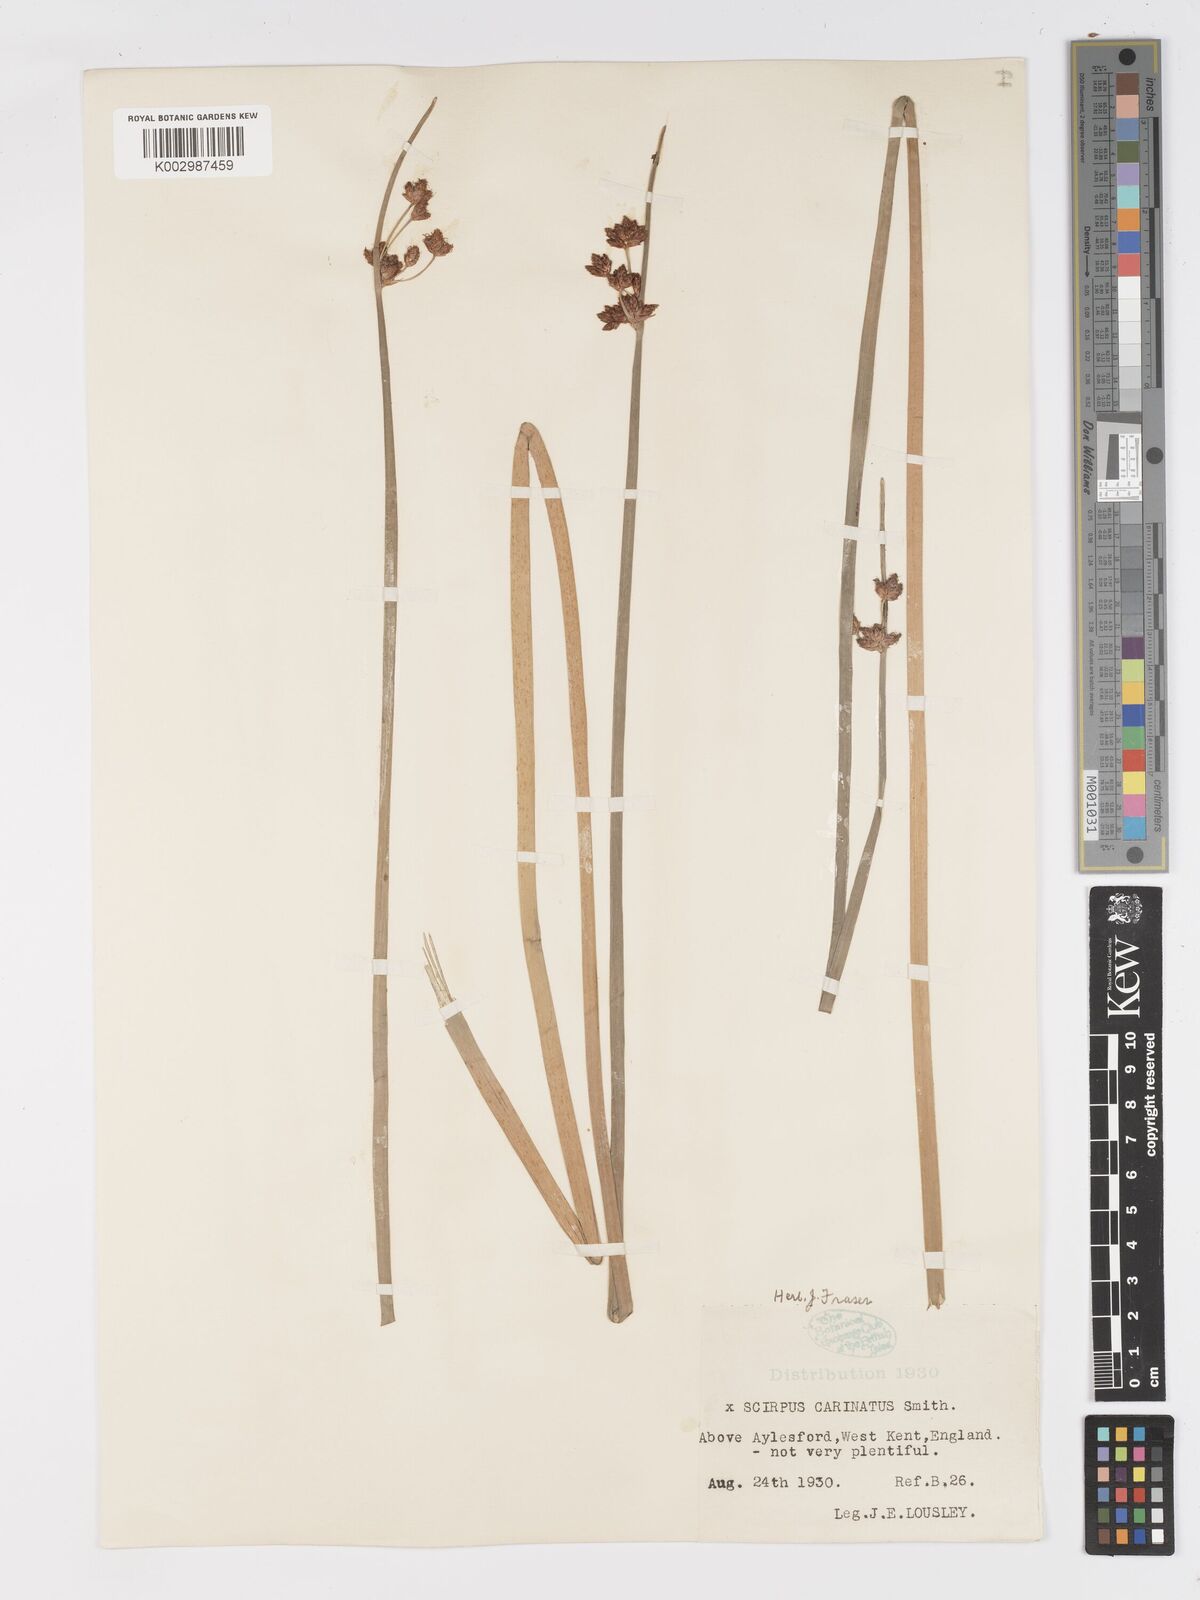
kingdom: Plantae
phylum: Tracheophyta
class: Liliopsida
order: Poales
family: Cyperaceae
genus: Schoenoplectus
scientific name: Schoenoplectus carinatus
